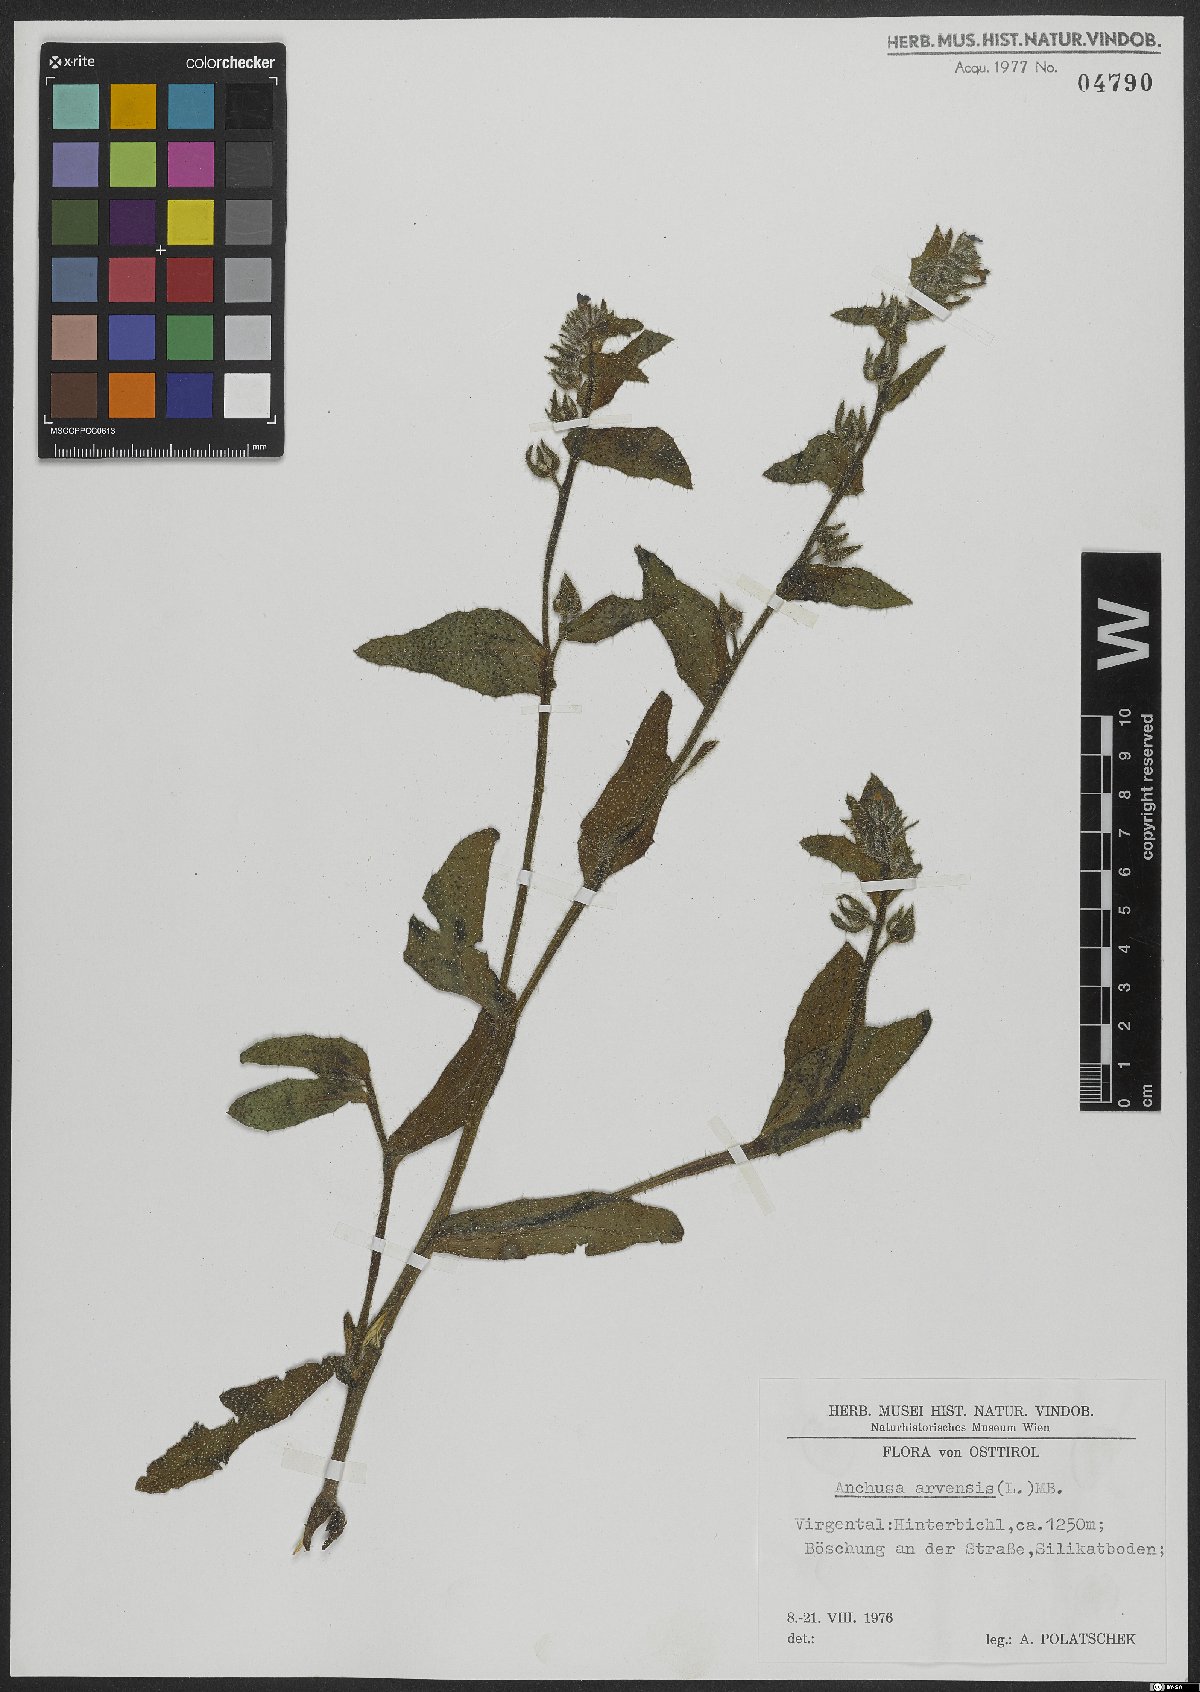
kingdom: Plantae
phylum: Tracheophyta
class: Magnoliopsida
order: Boraginales
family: Boraginaceae
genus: Lycopsis
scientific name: Lycopsis arvensis
